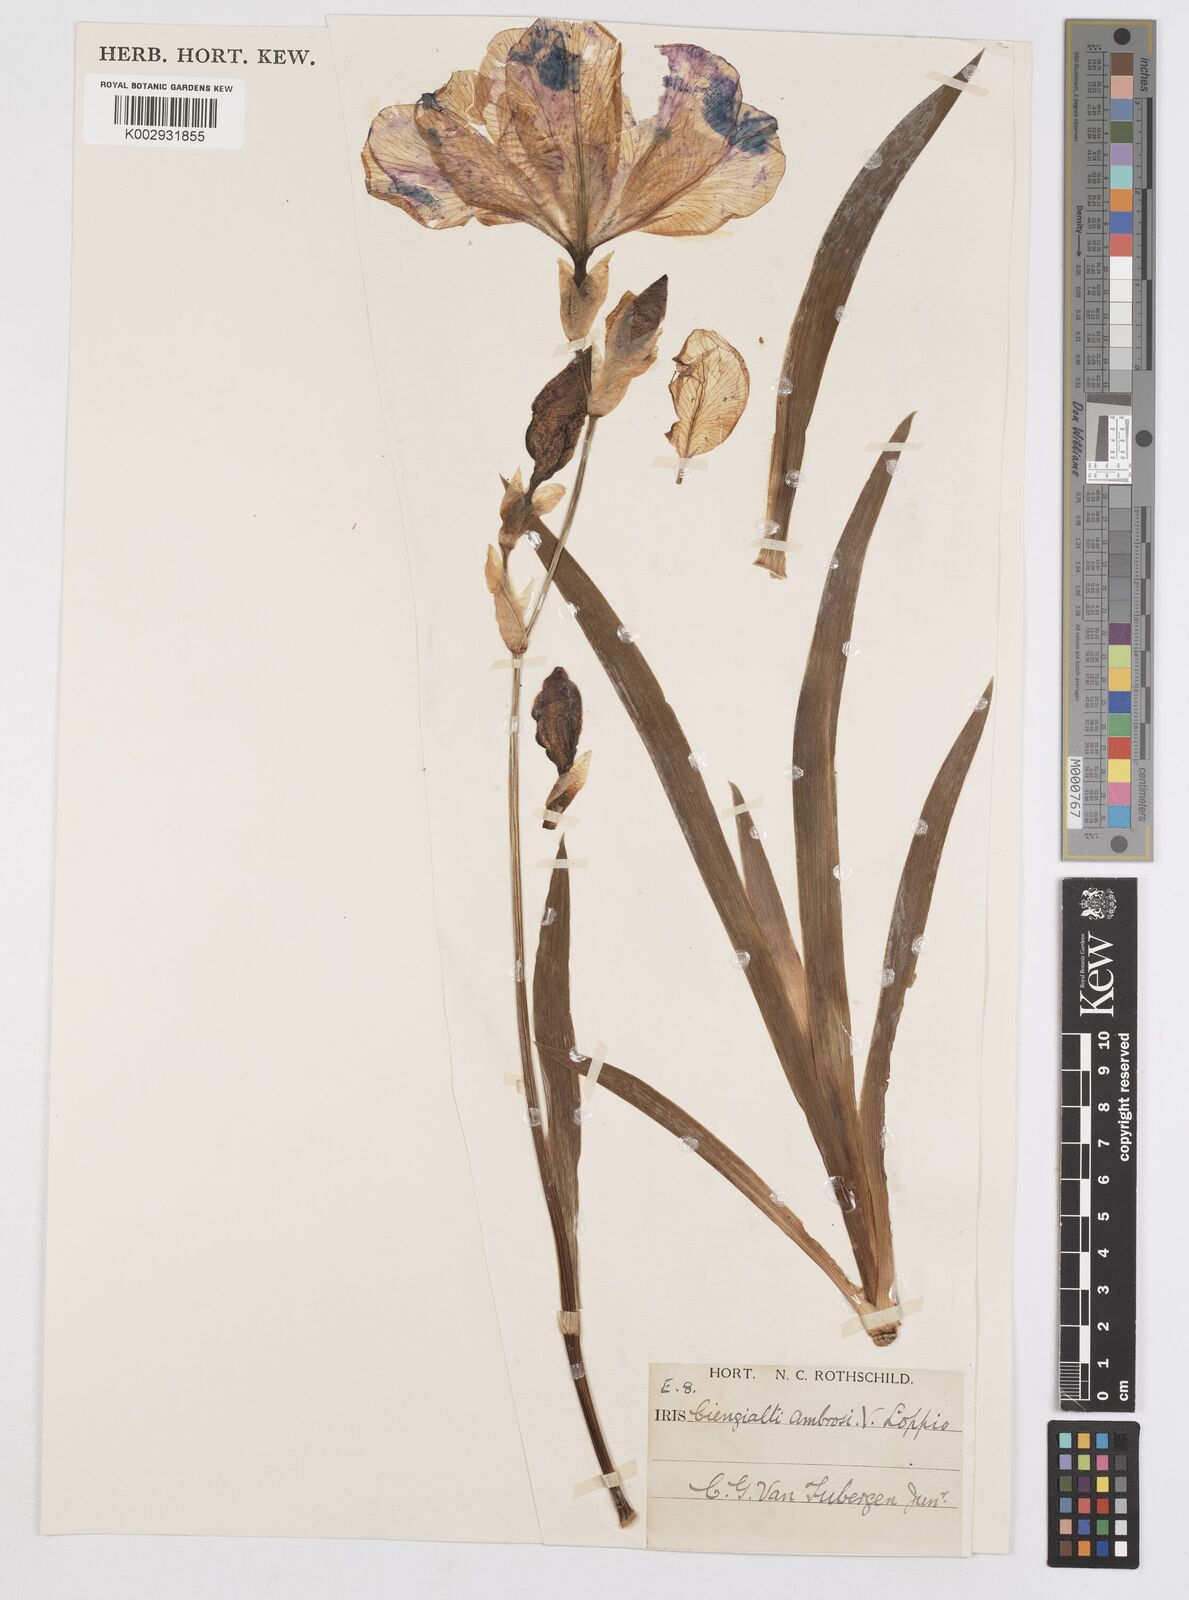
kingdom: Plantae
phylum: Tracheophyta
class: Liliopsida
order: Asparagales
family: Iridaceae
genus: Iris
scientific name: Iris pallida
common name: Sweet iris
